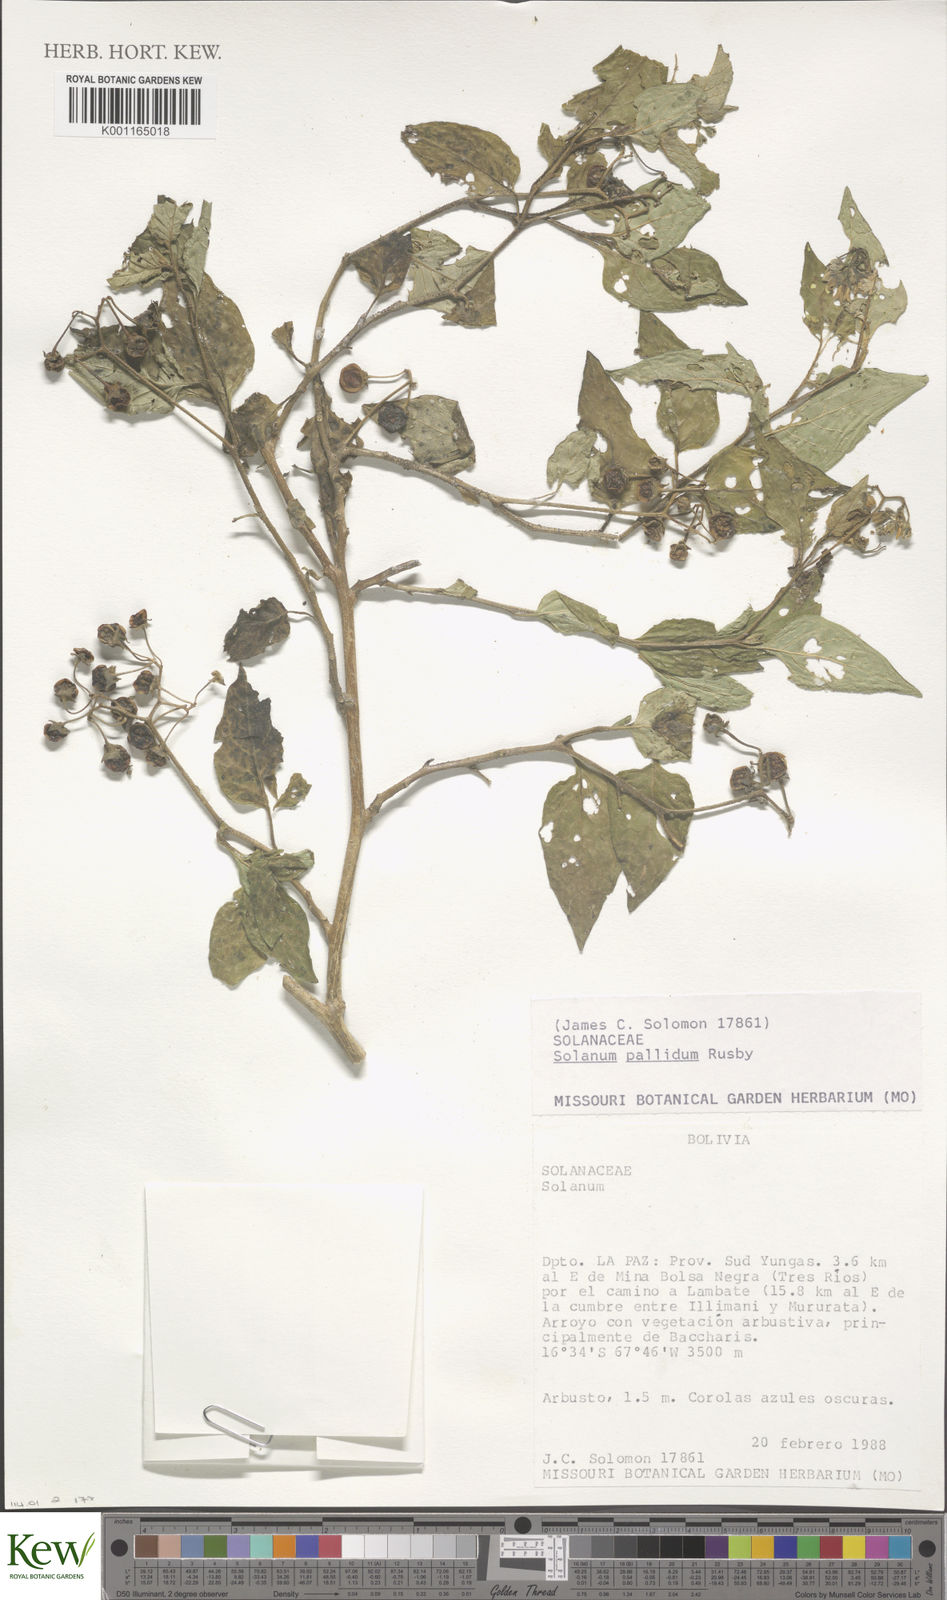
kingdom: Plantae
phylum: Tracheophyta
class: Magnoliopsida
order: Solanales
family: Solanaceae
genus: Solanum
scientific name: Solanum nutans
